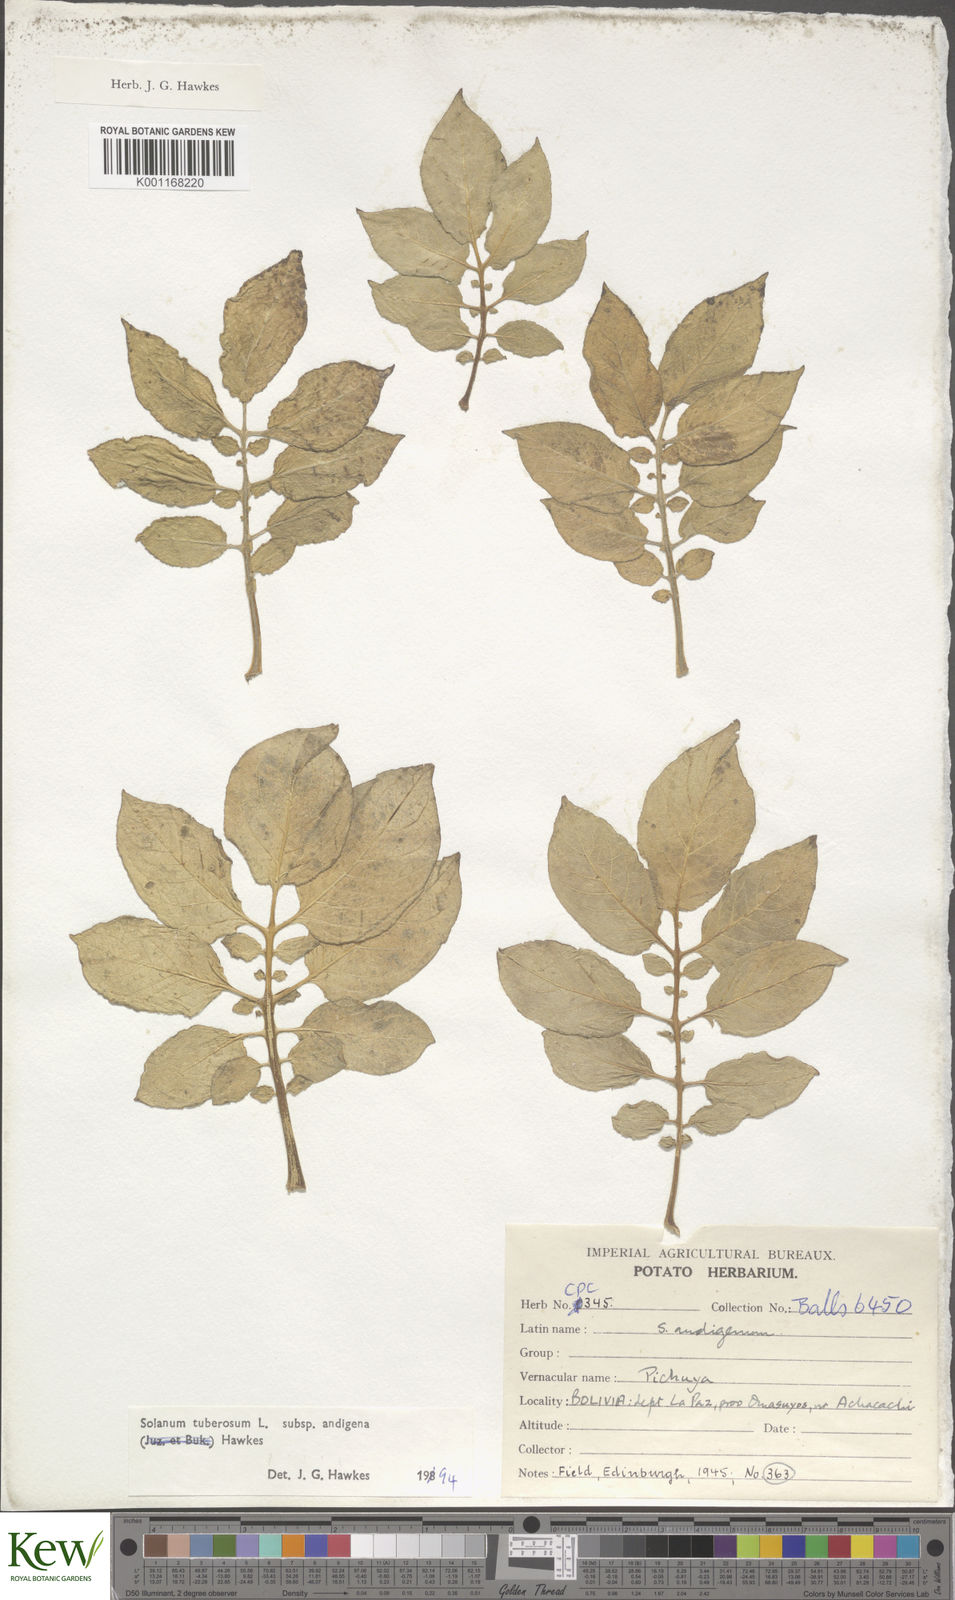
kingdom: Plantae
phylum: Tracheophyta
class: Magnoliopsida
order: Solanales
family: Solanaceae
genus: Solanum
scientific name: Solanum tuberosum
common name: Potato
